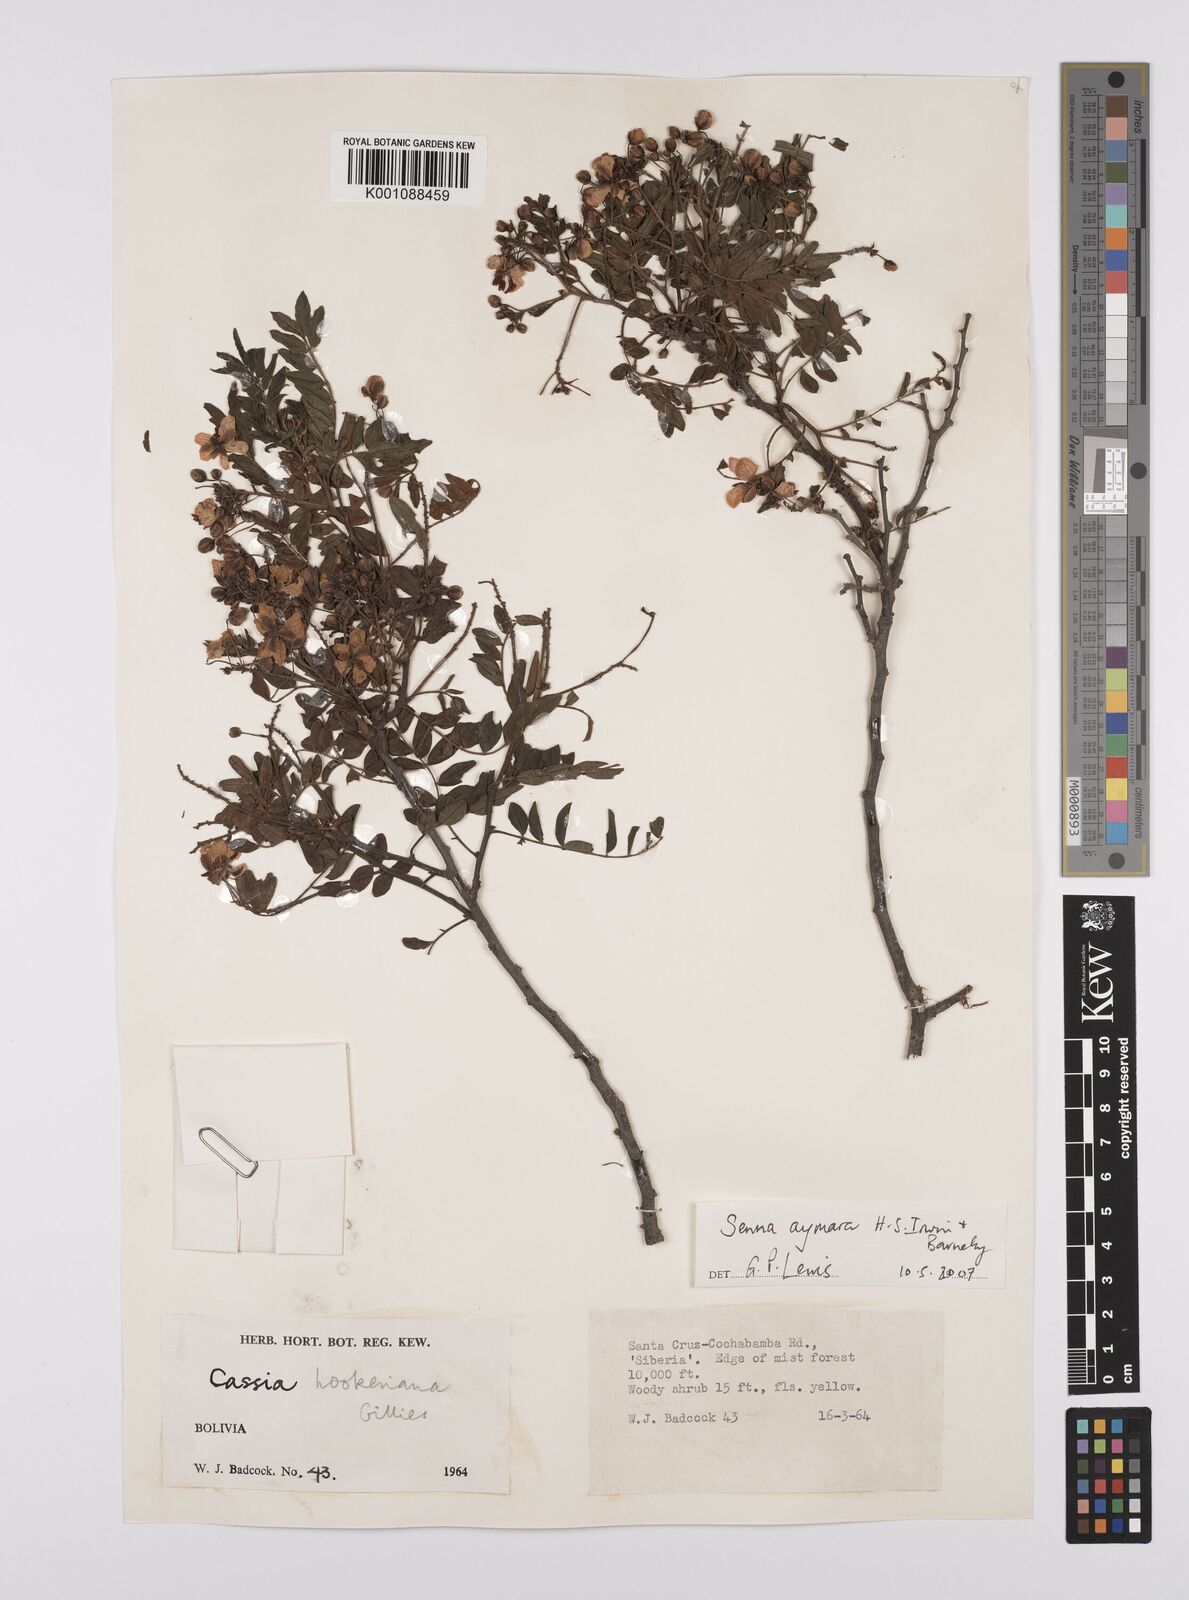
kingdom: Plantae
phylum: Tracheophyta
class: Magnoliopsida
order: Fabales
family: Fabaceae
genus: Senna
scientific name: Senna aymara
